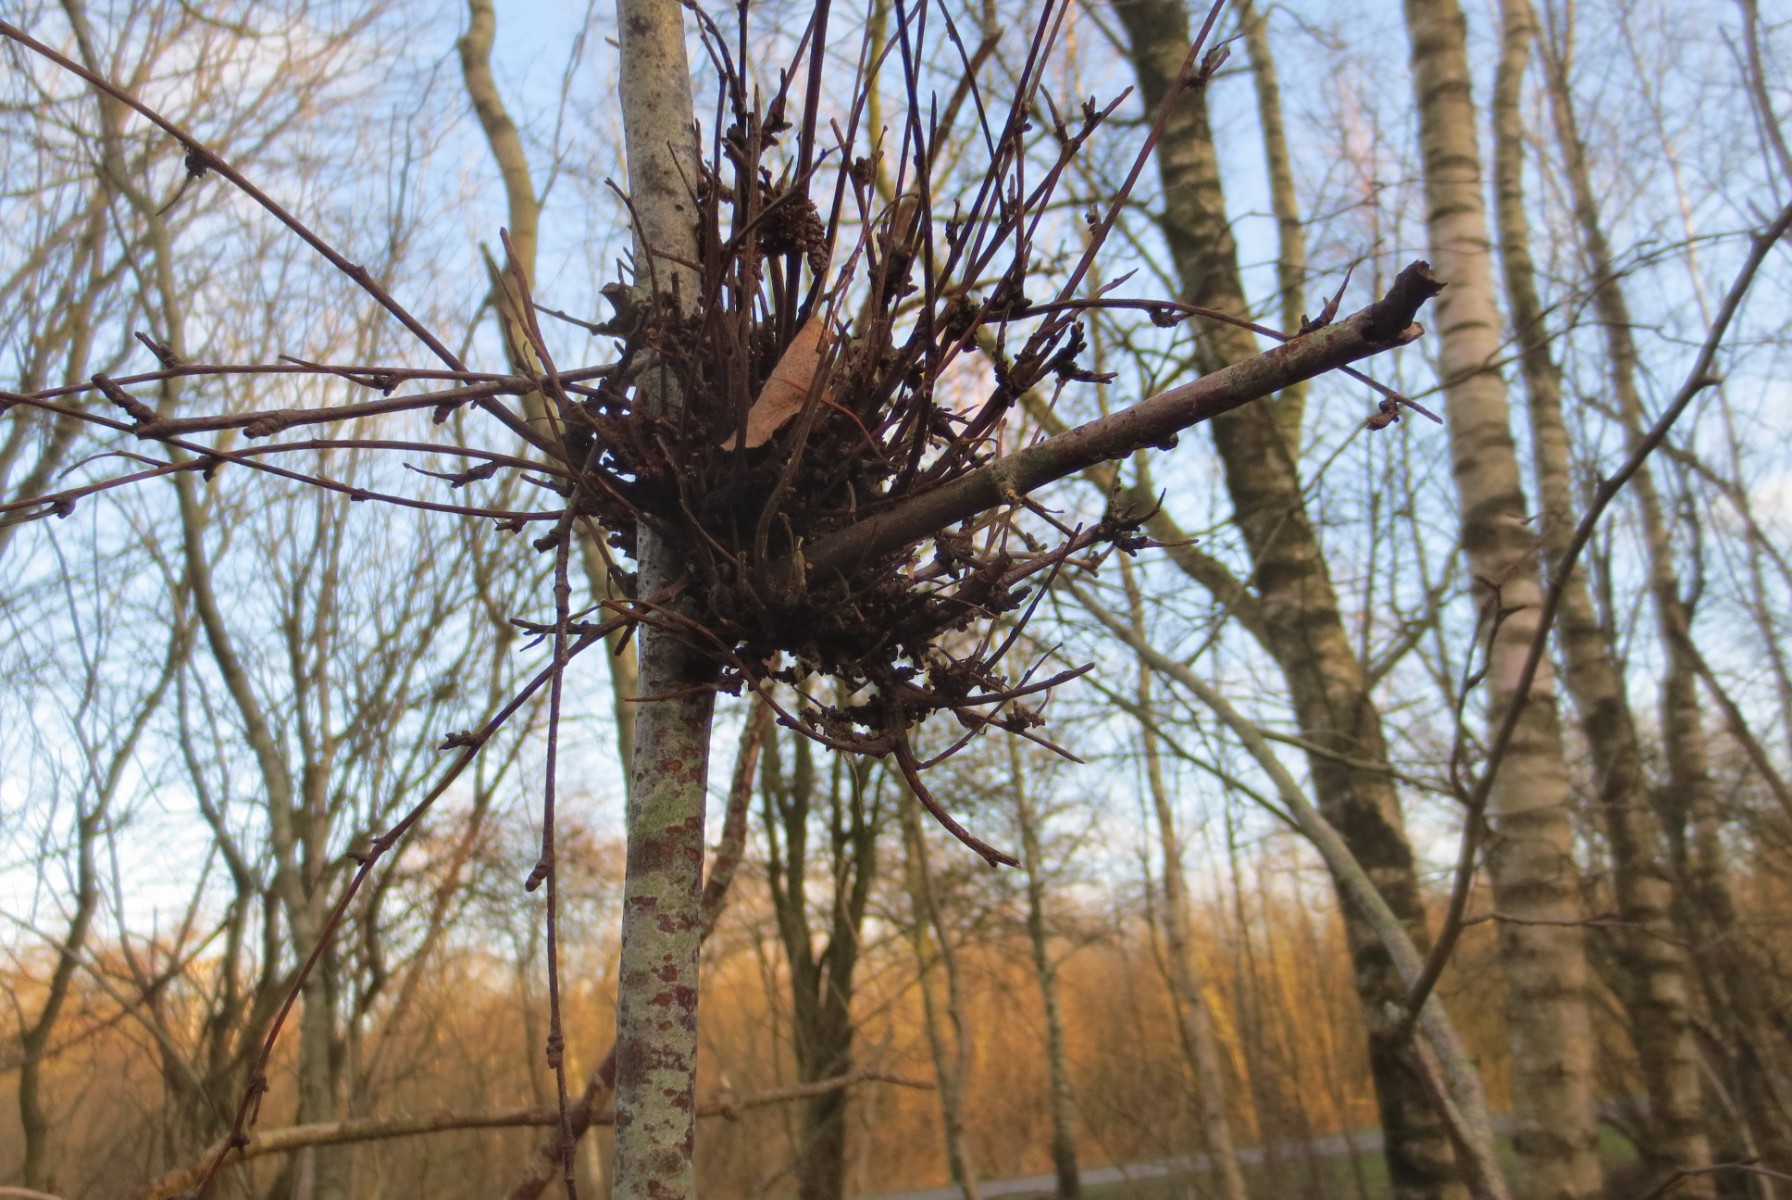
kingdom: Fungi
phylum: Ascomycota
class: Taphrinomycetes
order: Taphrinales
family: Taphrinaceae
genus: Taphrina
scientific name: Taphrina betulina
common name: hekse-sækdug
